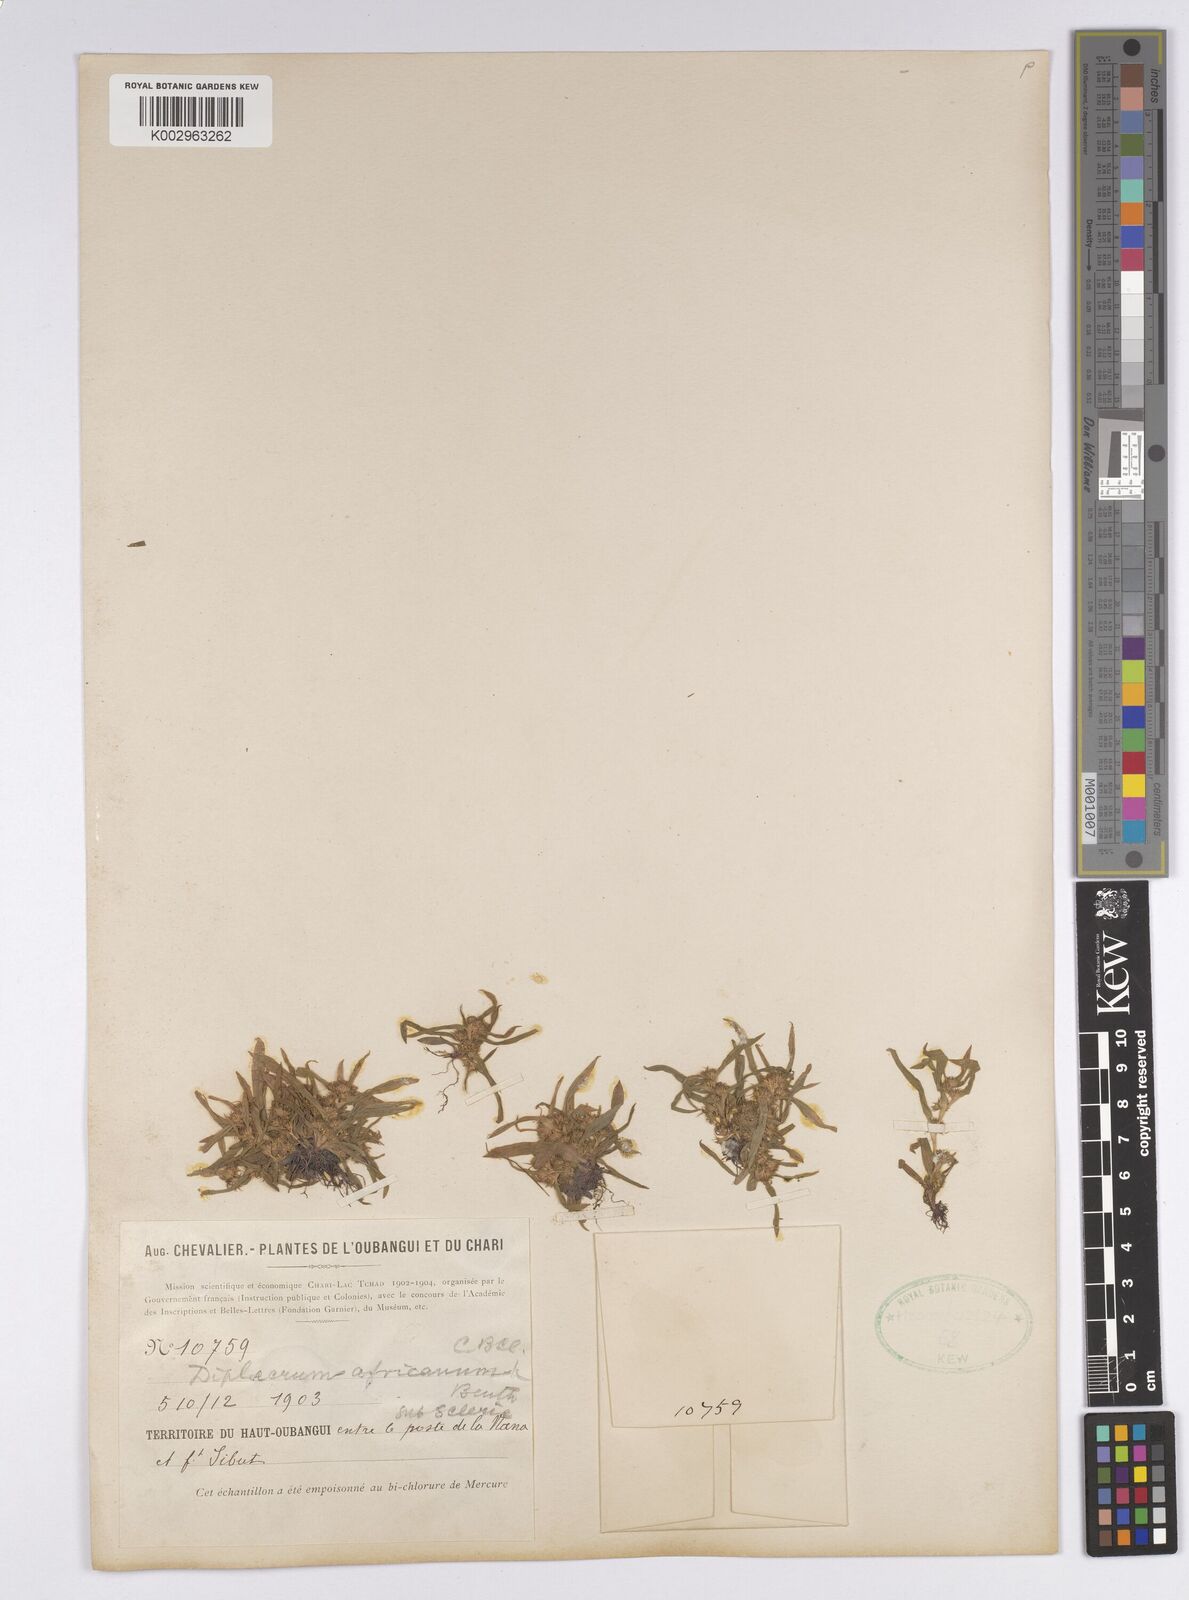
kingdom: Plantae
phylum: Tracheophyta
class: Liliopsida
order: Poales
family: Cyperaceae
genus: Diplacrum
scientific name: Diplacrum africanum
